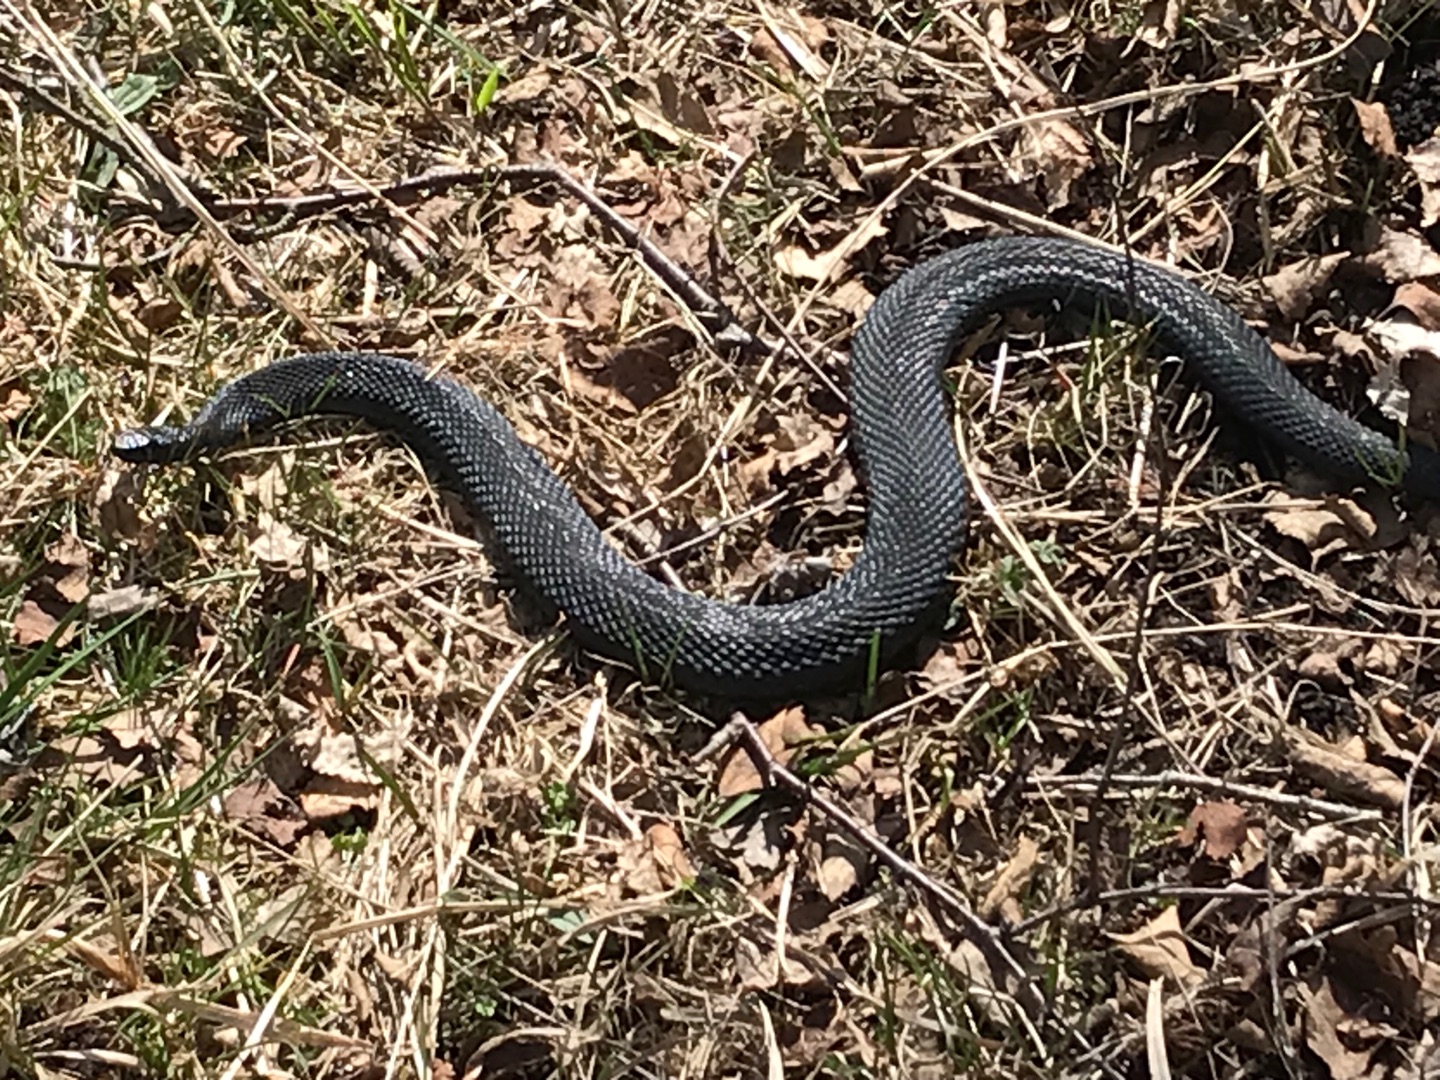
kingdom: Animalia
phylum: Chordata
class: Squamata
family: Viperidae
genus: Vipera
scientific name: Vipera berus
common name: Hugorm
